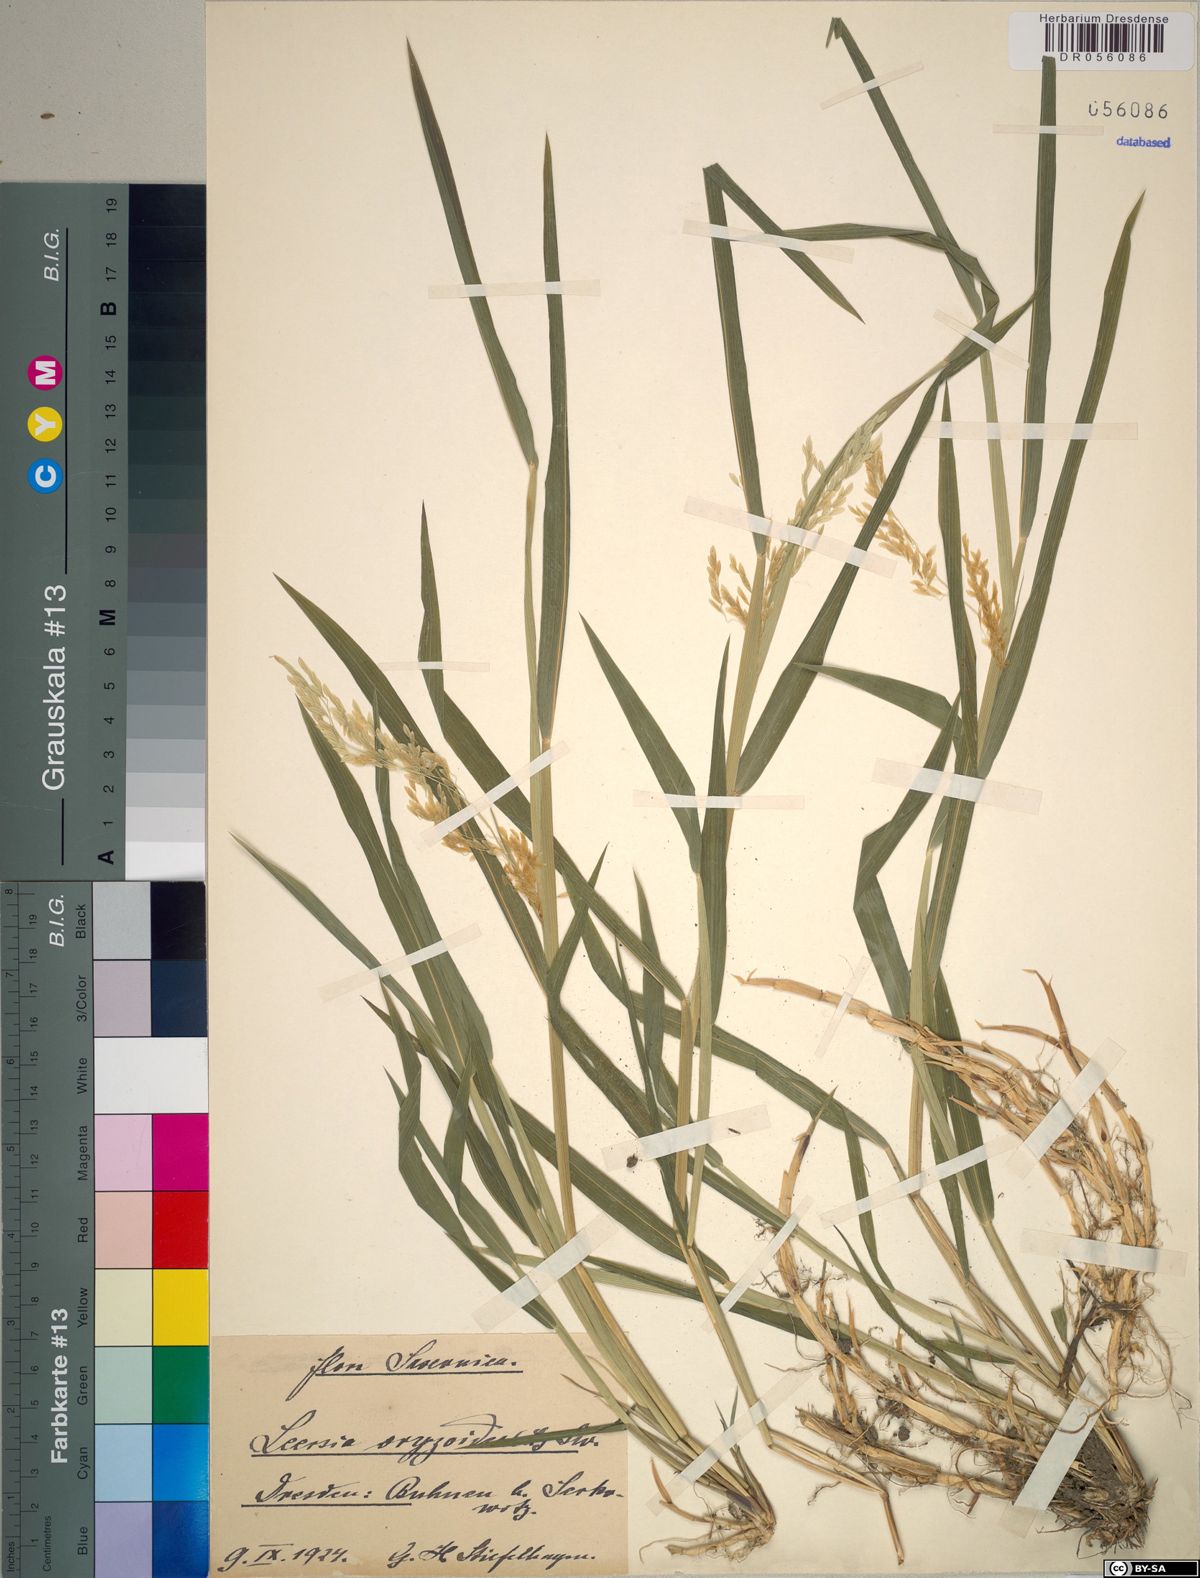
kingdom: Plantae
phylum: Tracheophyta
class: Liliopsida
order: Poales
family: Poaceae
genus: Leersia
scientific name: Leersia oryzoides
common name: Cut-grass
